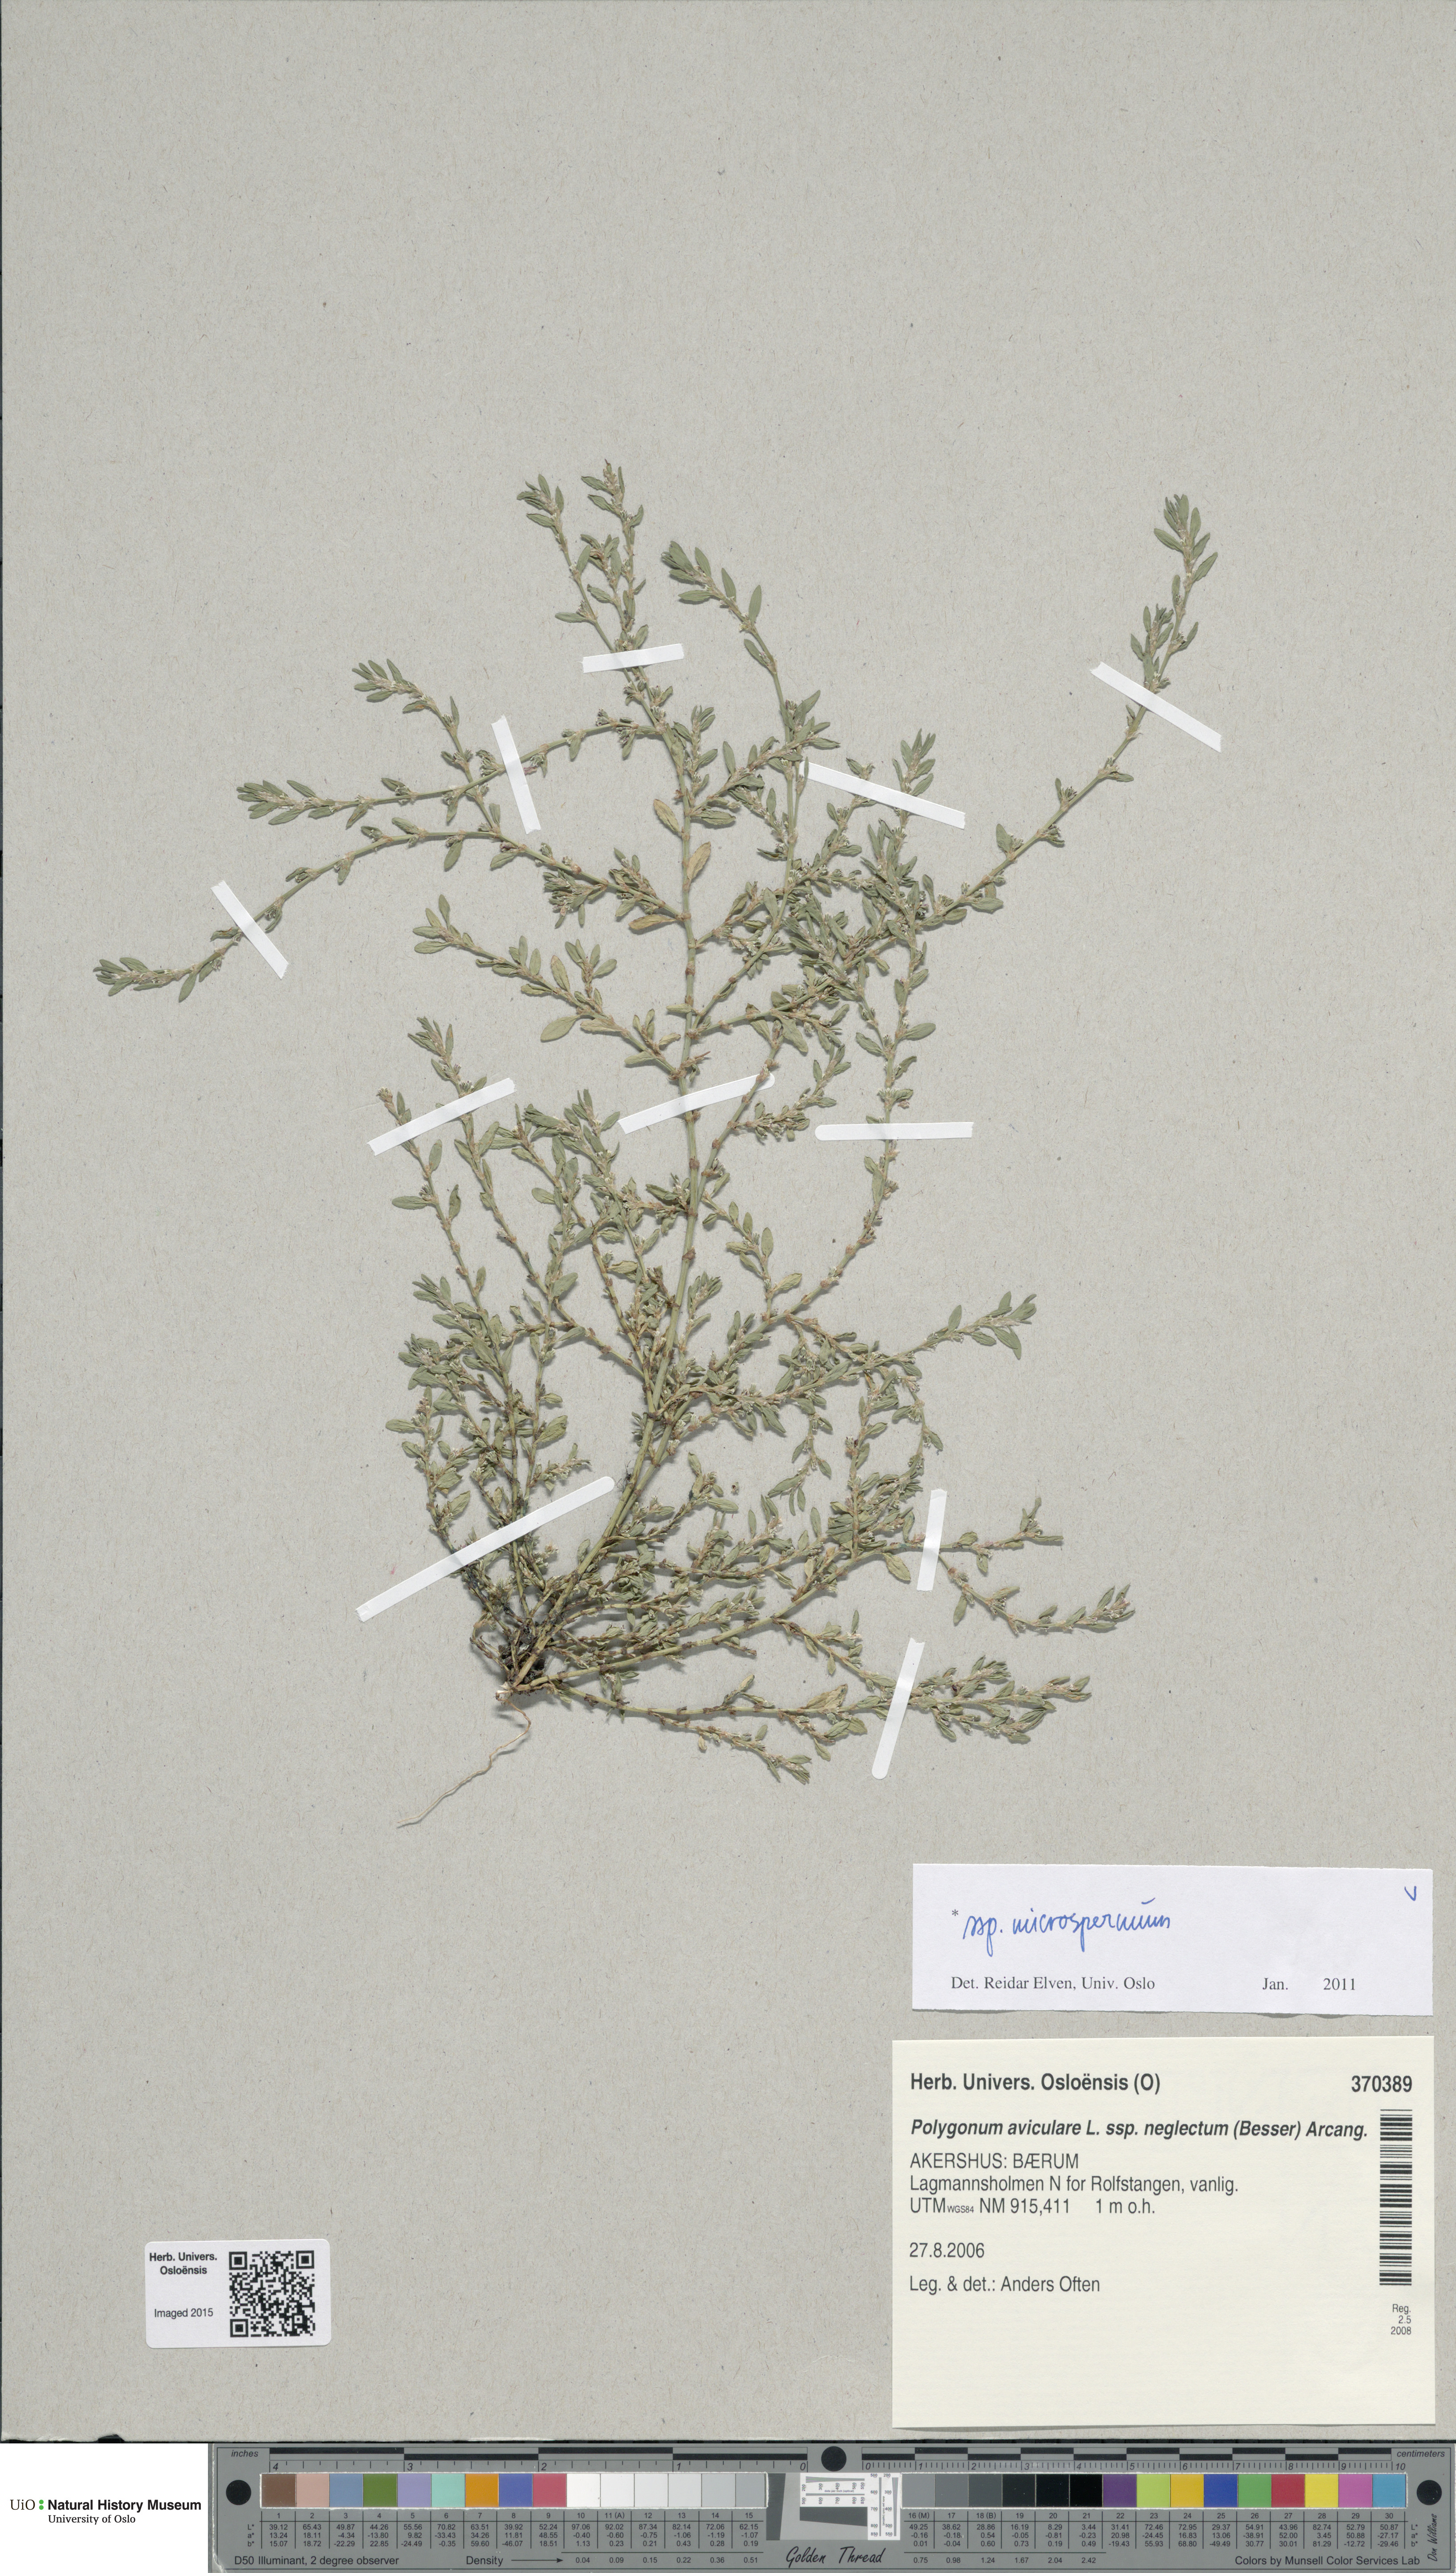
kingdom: Plantae
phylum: Tracheophyta
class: Magnoliopsida
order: Caryophyllales
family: Polygonaceae
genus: Polygonum
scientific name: Polygonum arenastrum
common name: Equal-leaved knotgrass
